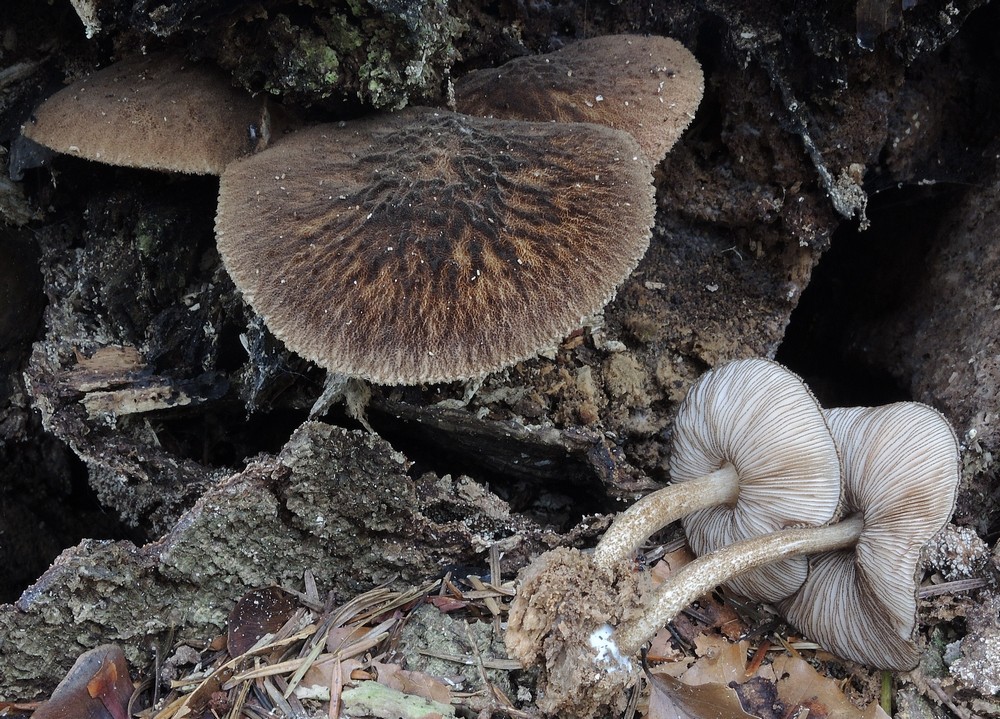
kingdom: Fungi
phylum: Basidiomycota
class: Agaricomycetes
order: Agaricales
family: Pluteaceae
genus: Pluteus
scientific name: Pluteus umbrosus
